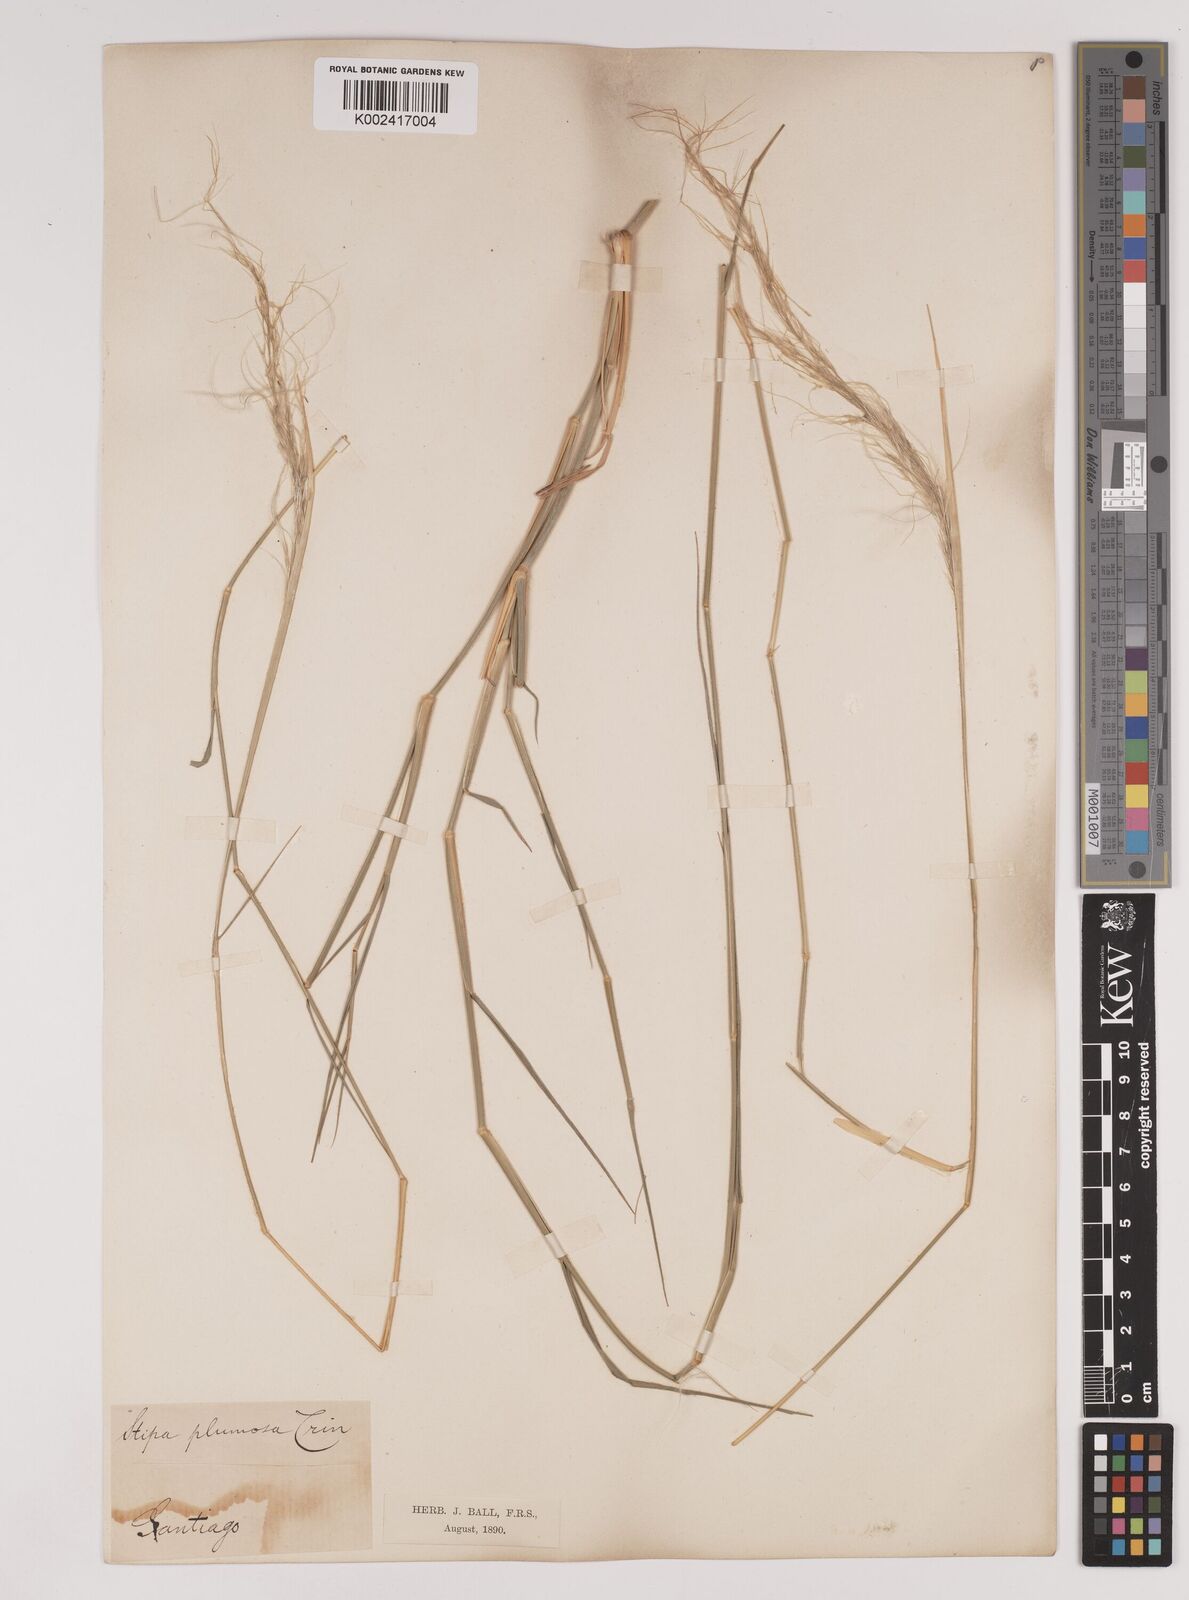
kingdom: Plantae
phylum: Tracheophyta
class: Liliopsida
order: Poales
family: Poaceae
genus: Stipa
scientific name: Stipa plumosa
